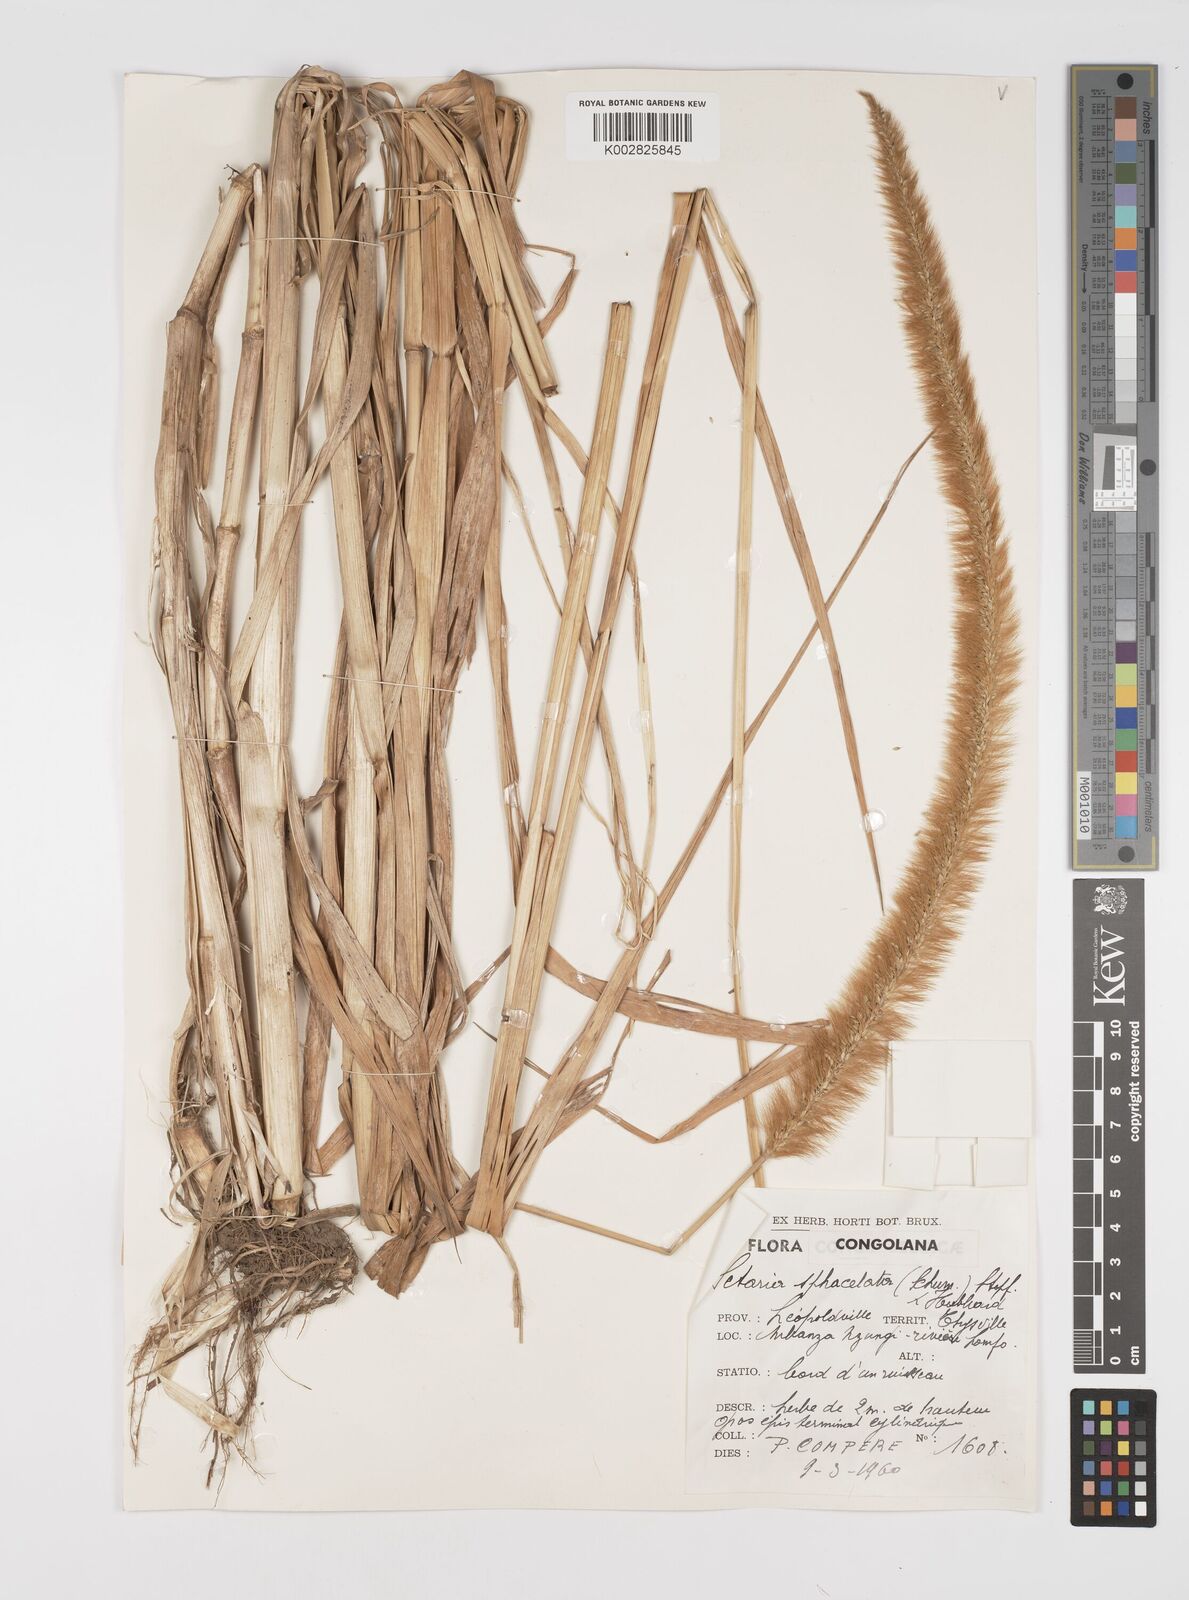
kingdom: Plantae
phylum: Tracheophyta
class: Liliopsida
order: Poales
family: Poaceae
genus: Setaria
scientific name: Setaria sphacelata
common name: African bristlegrass
